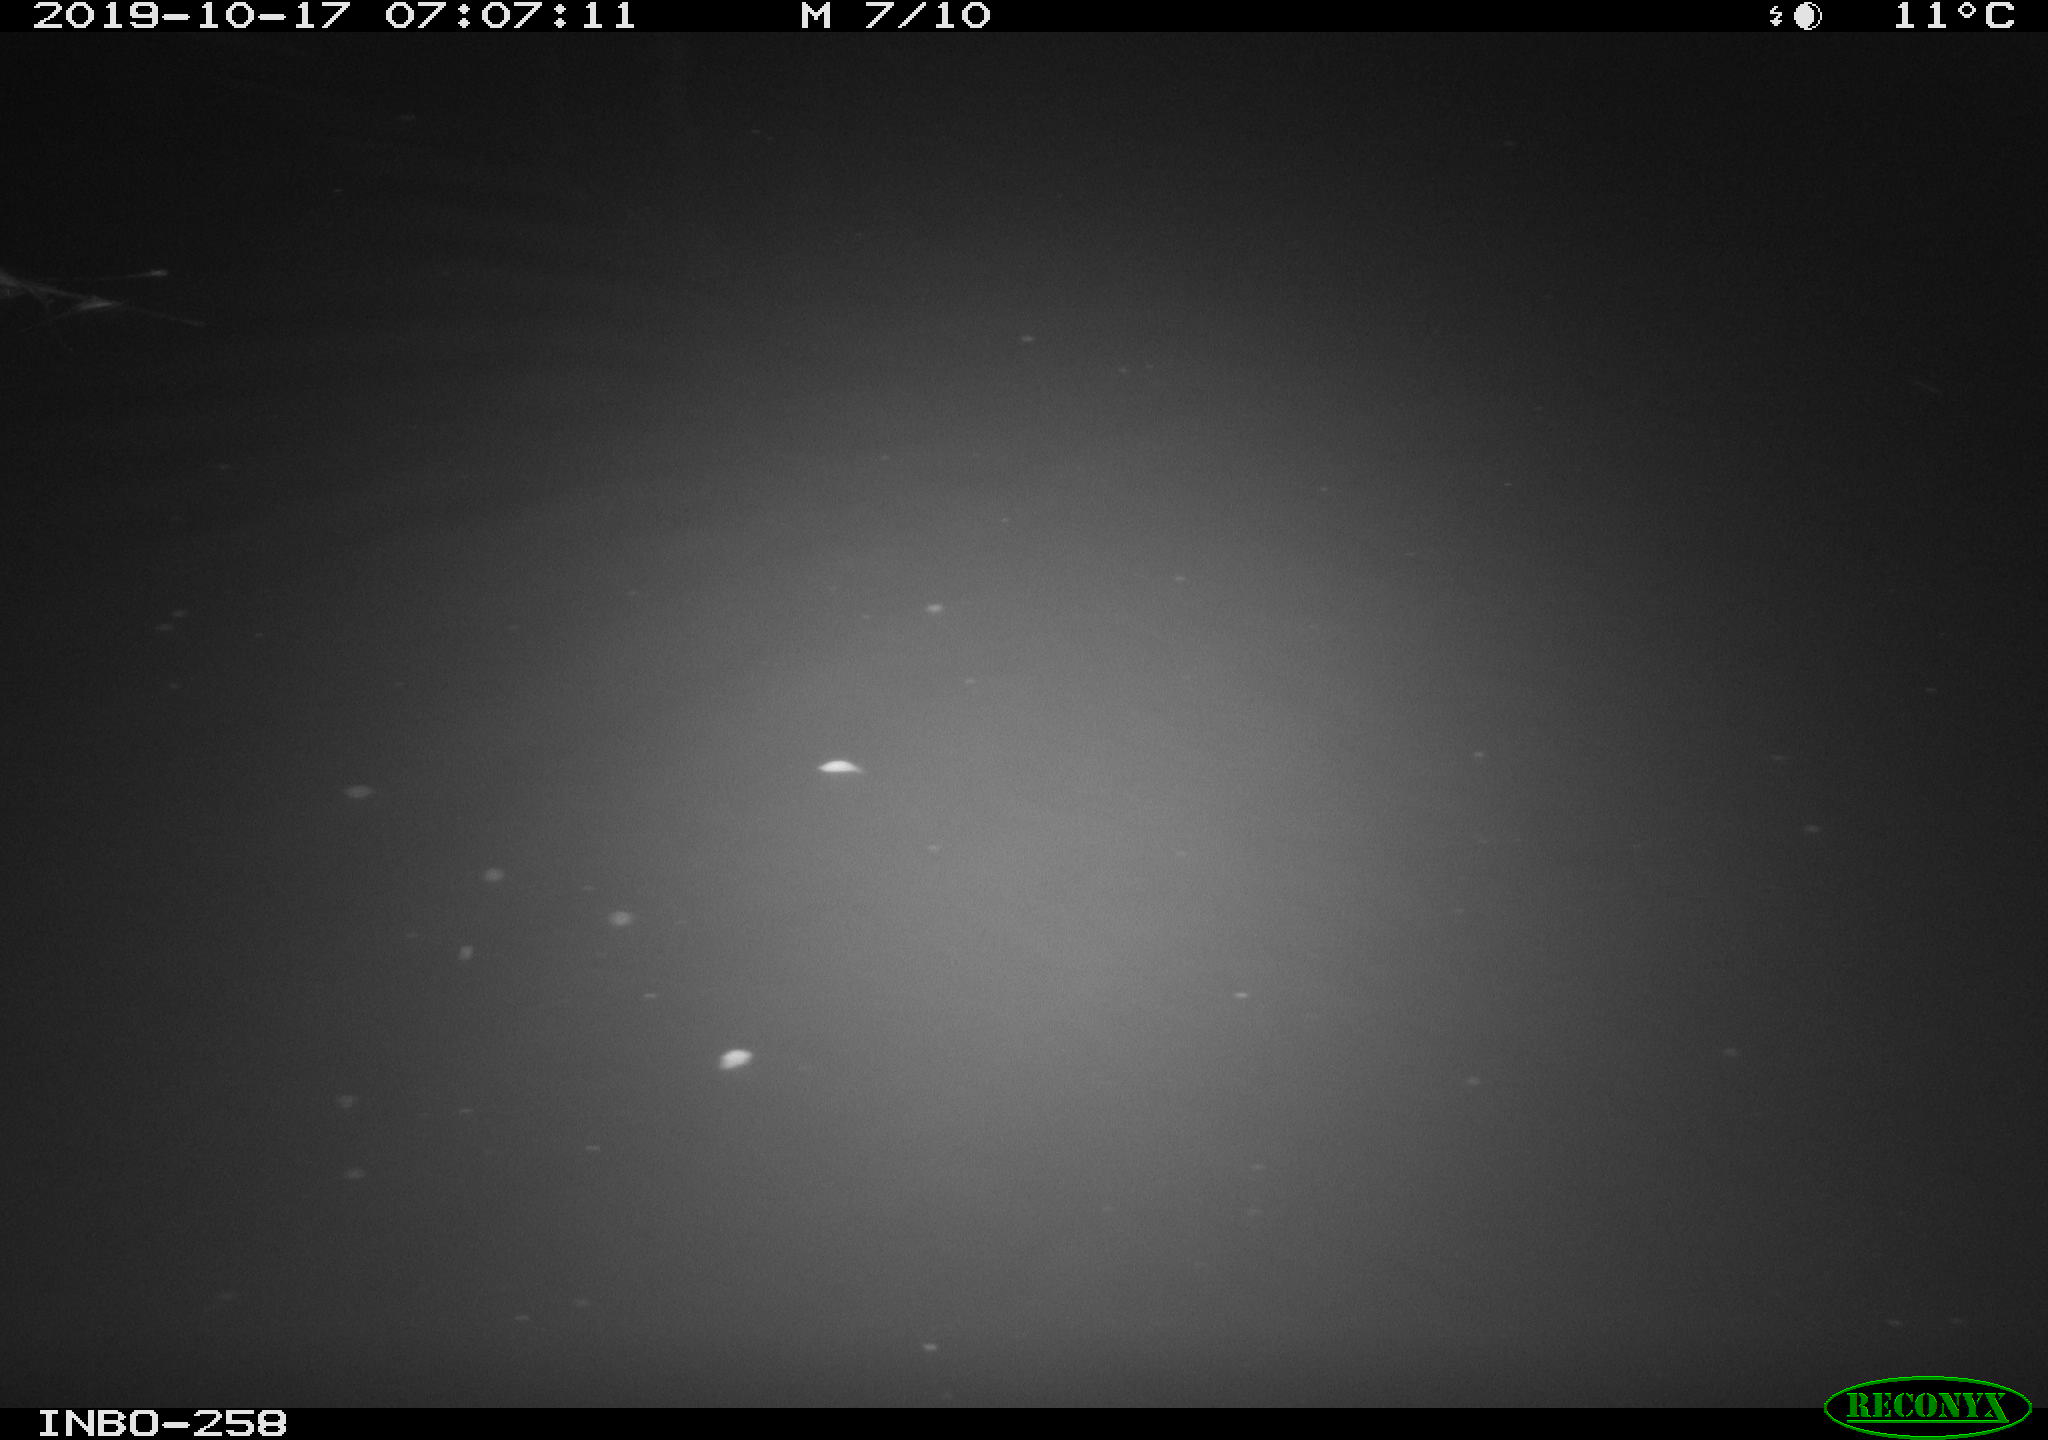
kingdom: Animalia
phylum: Chordata
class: Mammalia
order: Rodentia
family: Muridae
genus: Rattus
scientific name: Rattus norvegicus
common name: Brown rat
